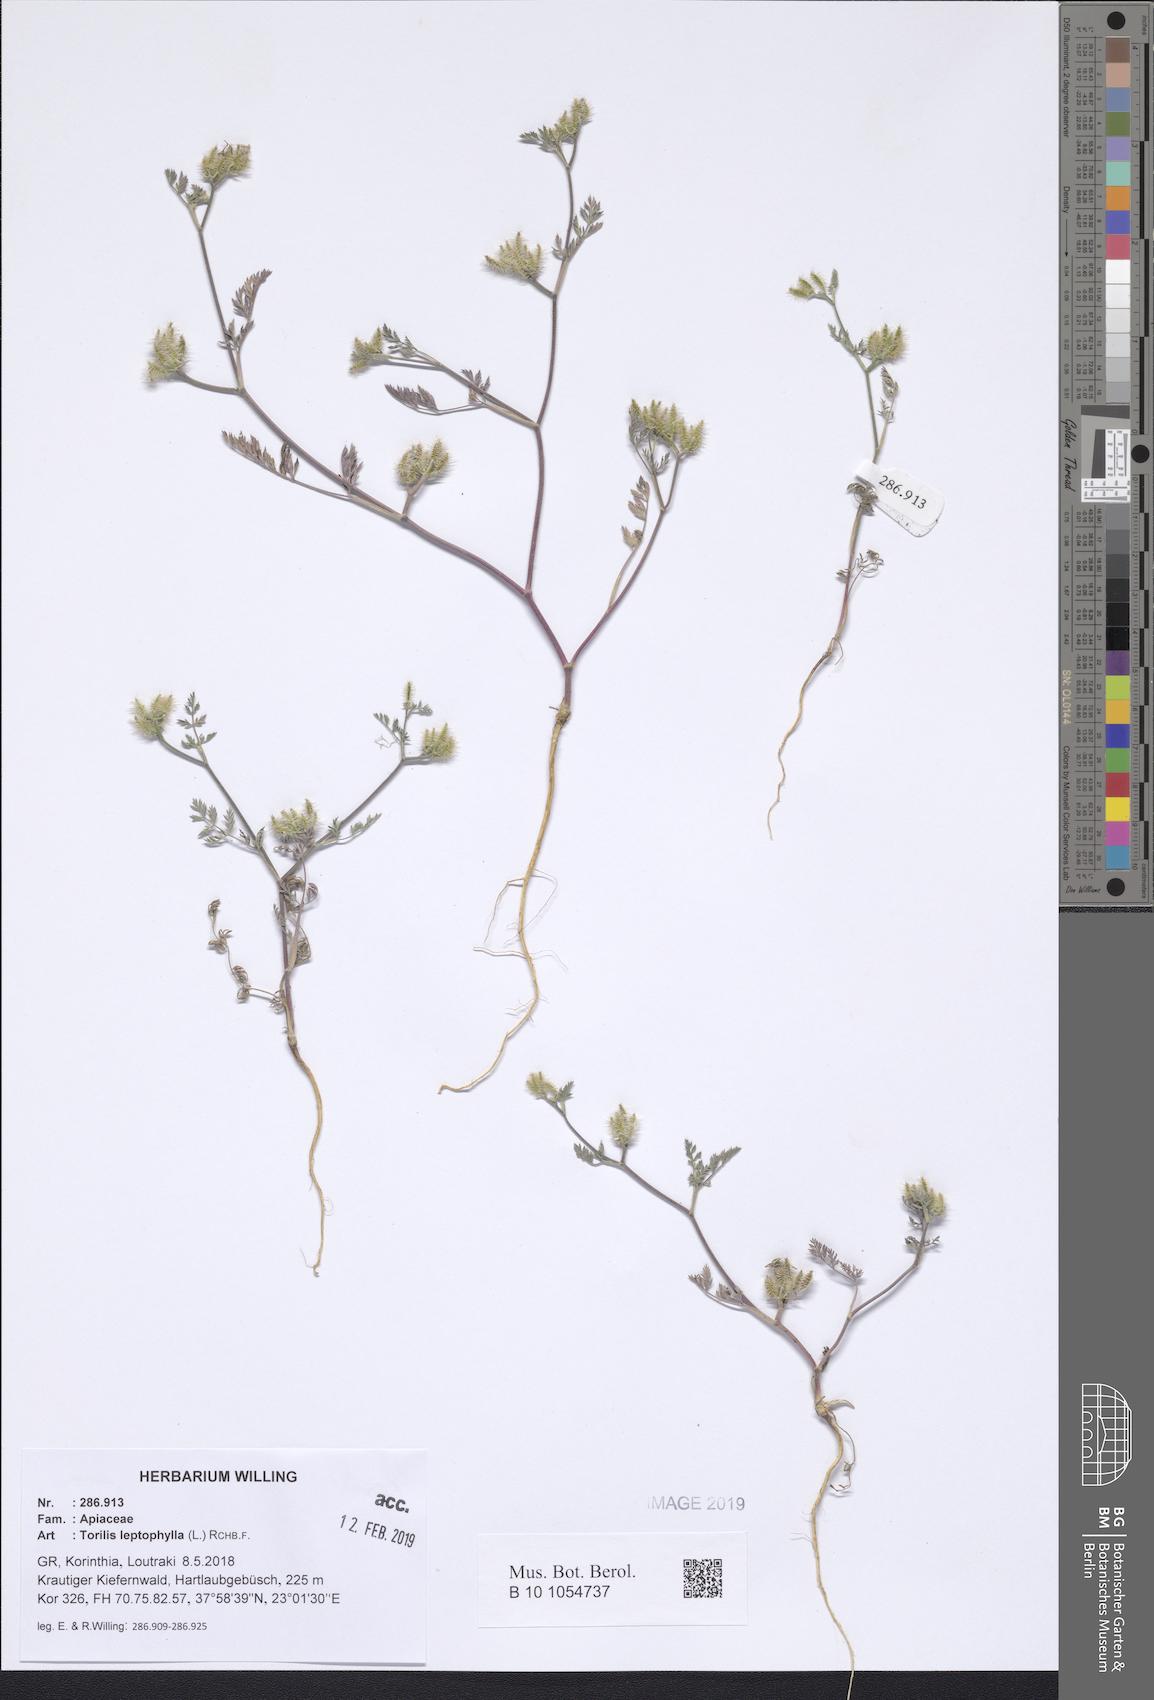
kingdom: Plantae
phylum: Tracheophyta
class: Magnoliopsida
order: Apiales
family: Apiaceae
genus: Torilis
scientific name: Torilis leptophylla
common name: Bristlefruit hedgeparsley
